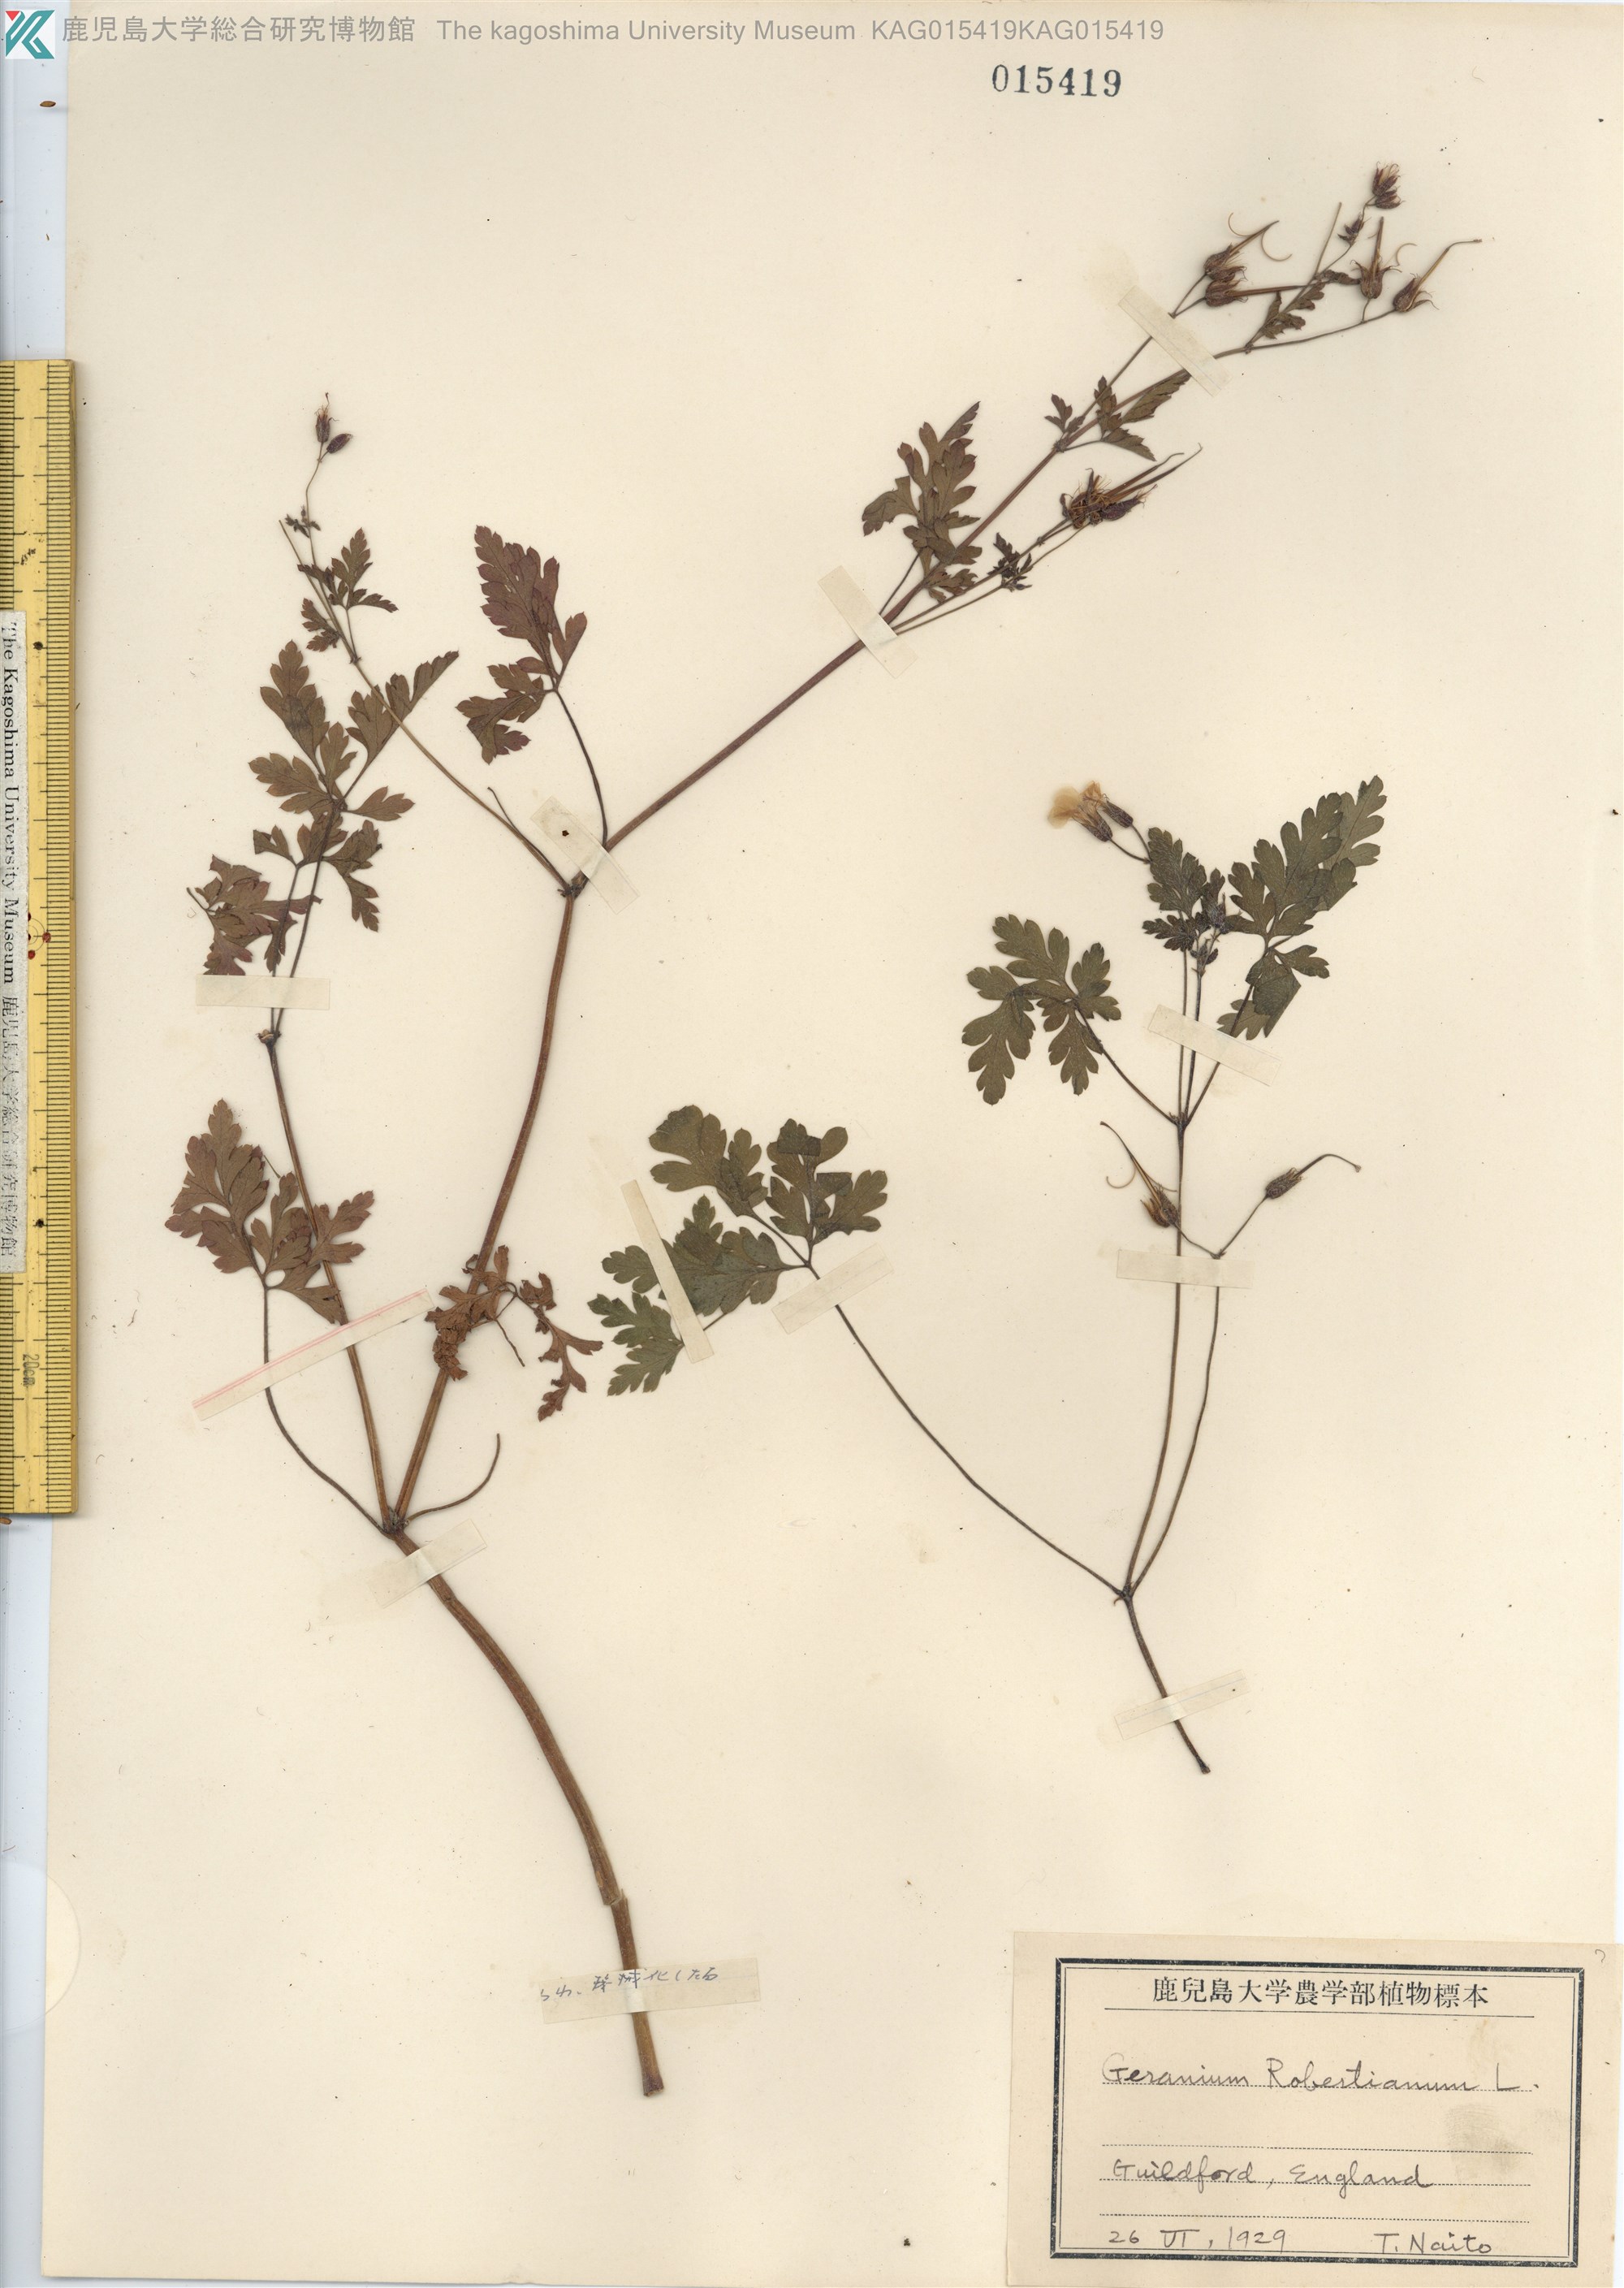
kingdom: Plantae
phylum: Tracheophyta
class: Magnoliopsida
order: Geraniales
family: Geraniaceae
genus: Geranium
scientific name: Geranium robertianum
